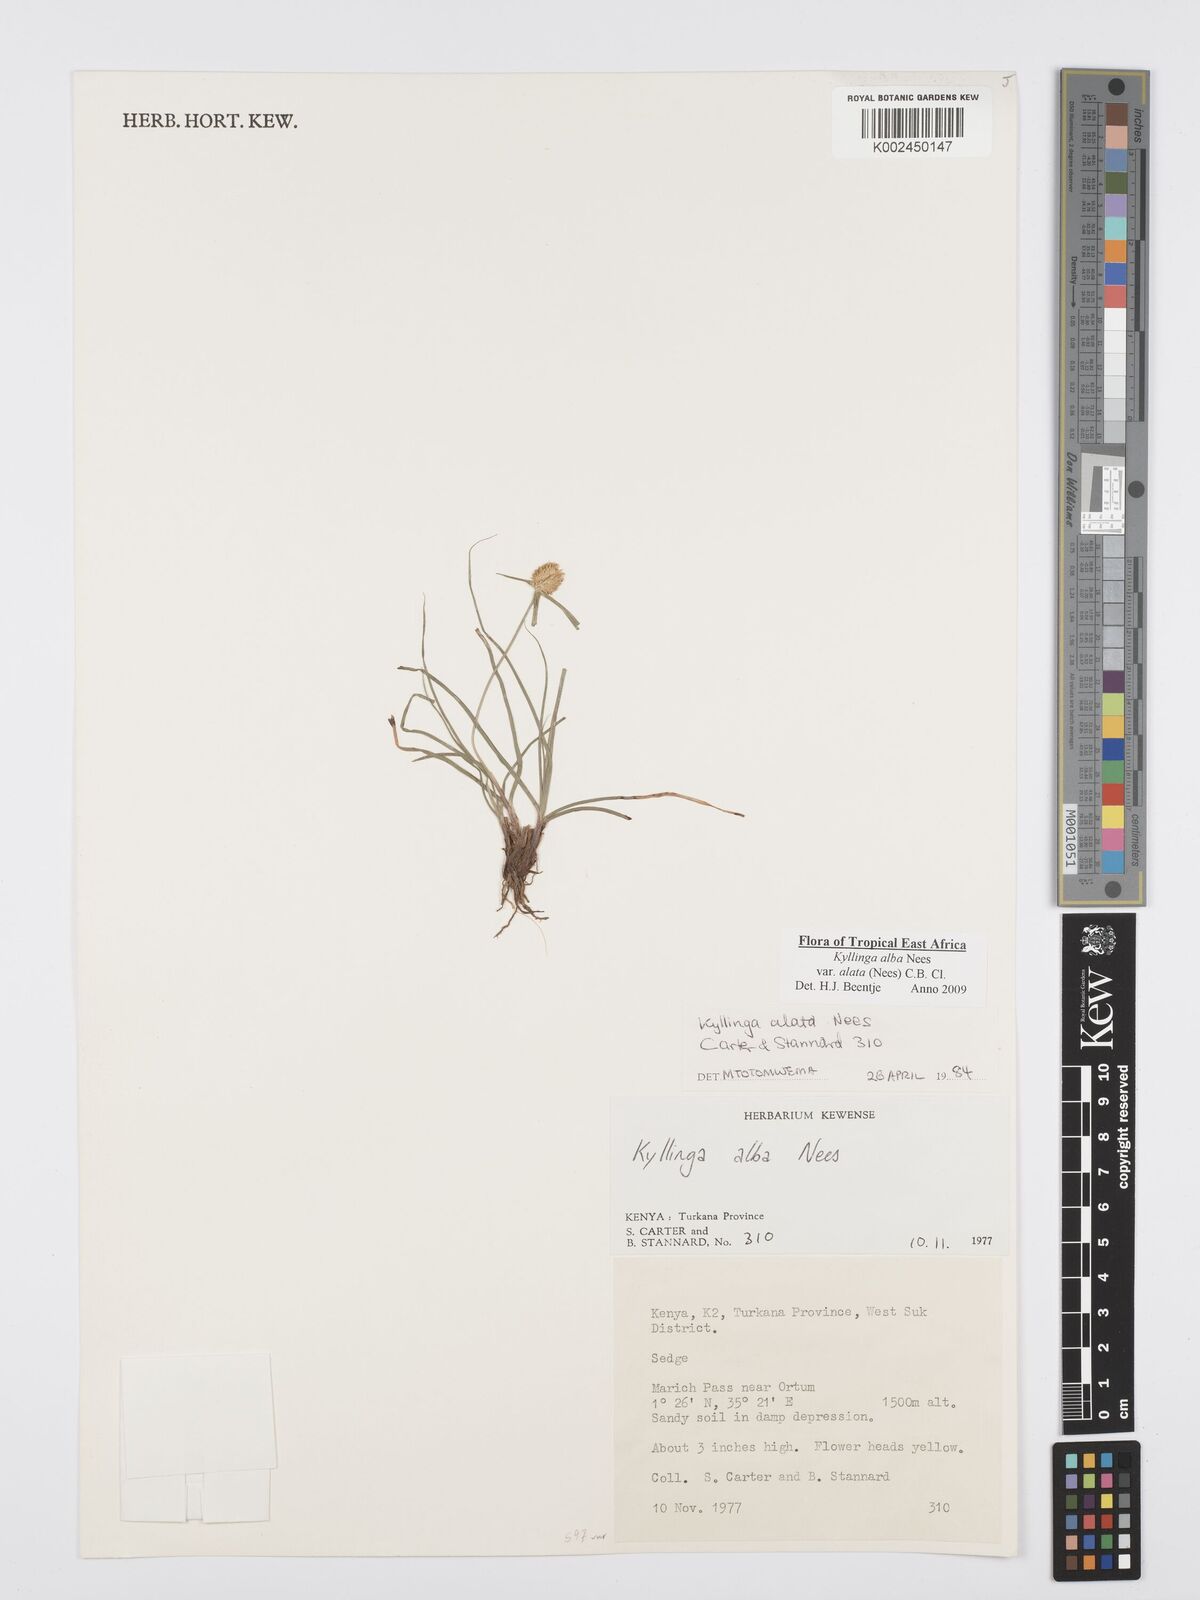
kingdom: Plantae
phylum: Tracheophyta
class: Liliopsida
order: Poales
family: Cyperaceae
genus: Cyperus
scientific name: Cyperus alatus
